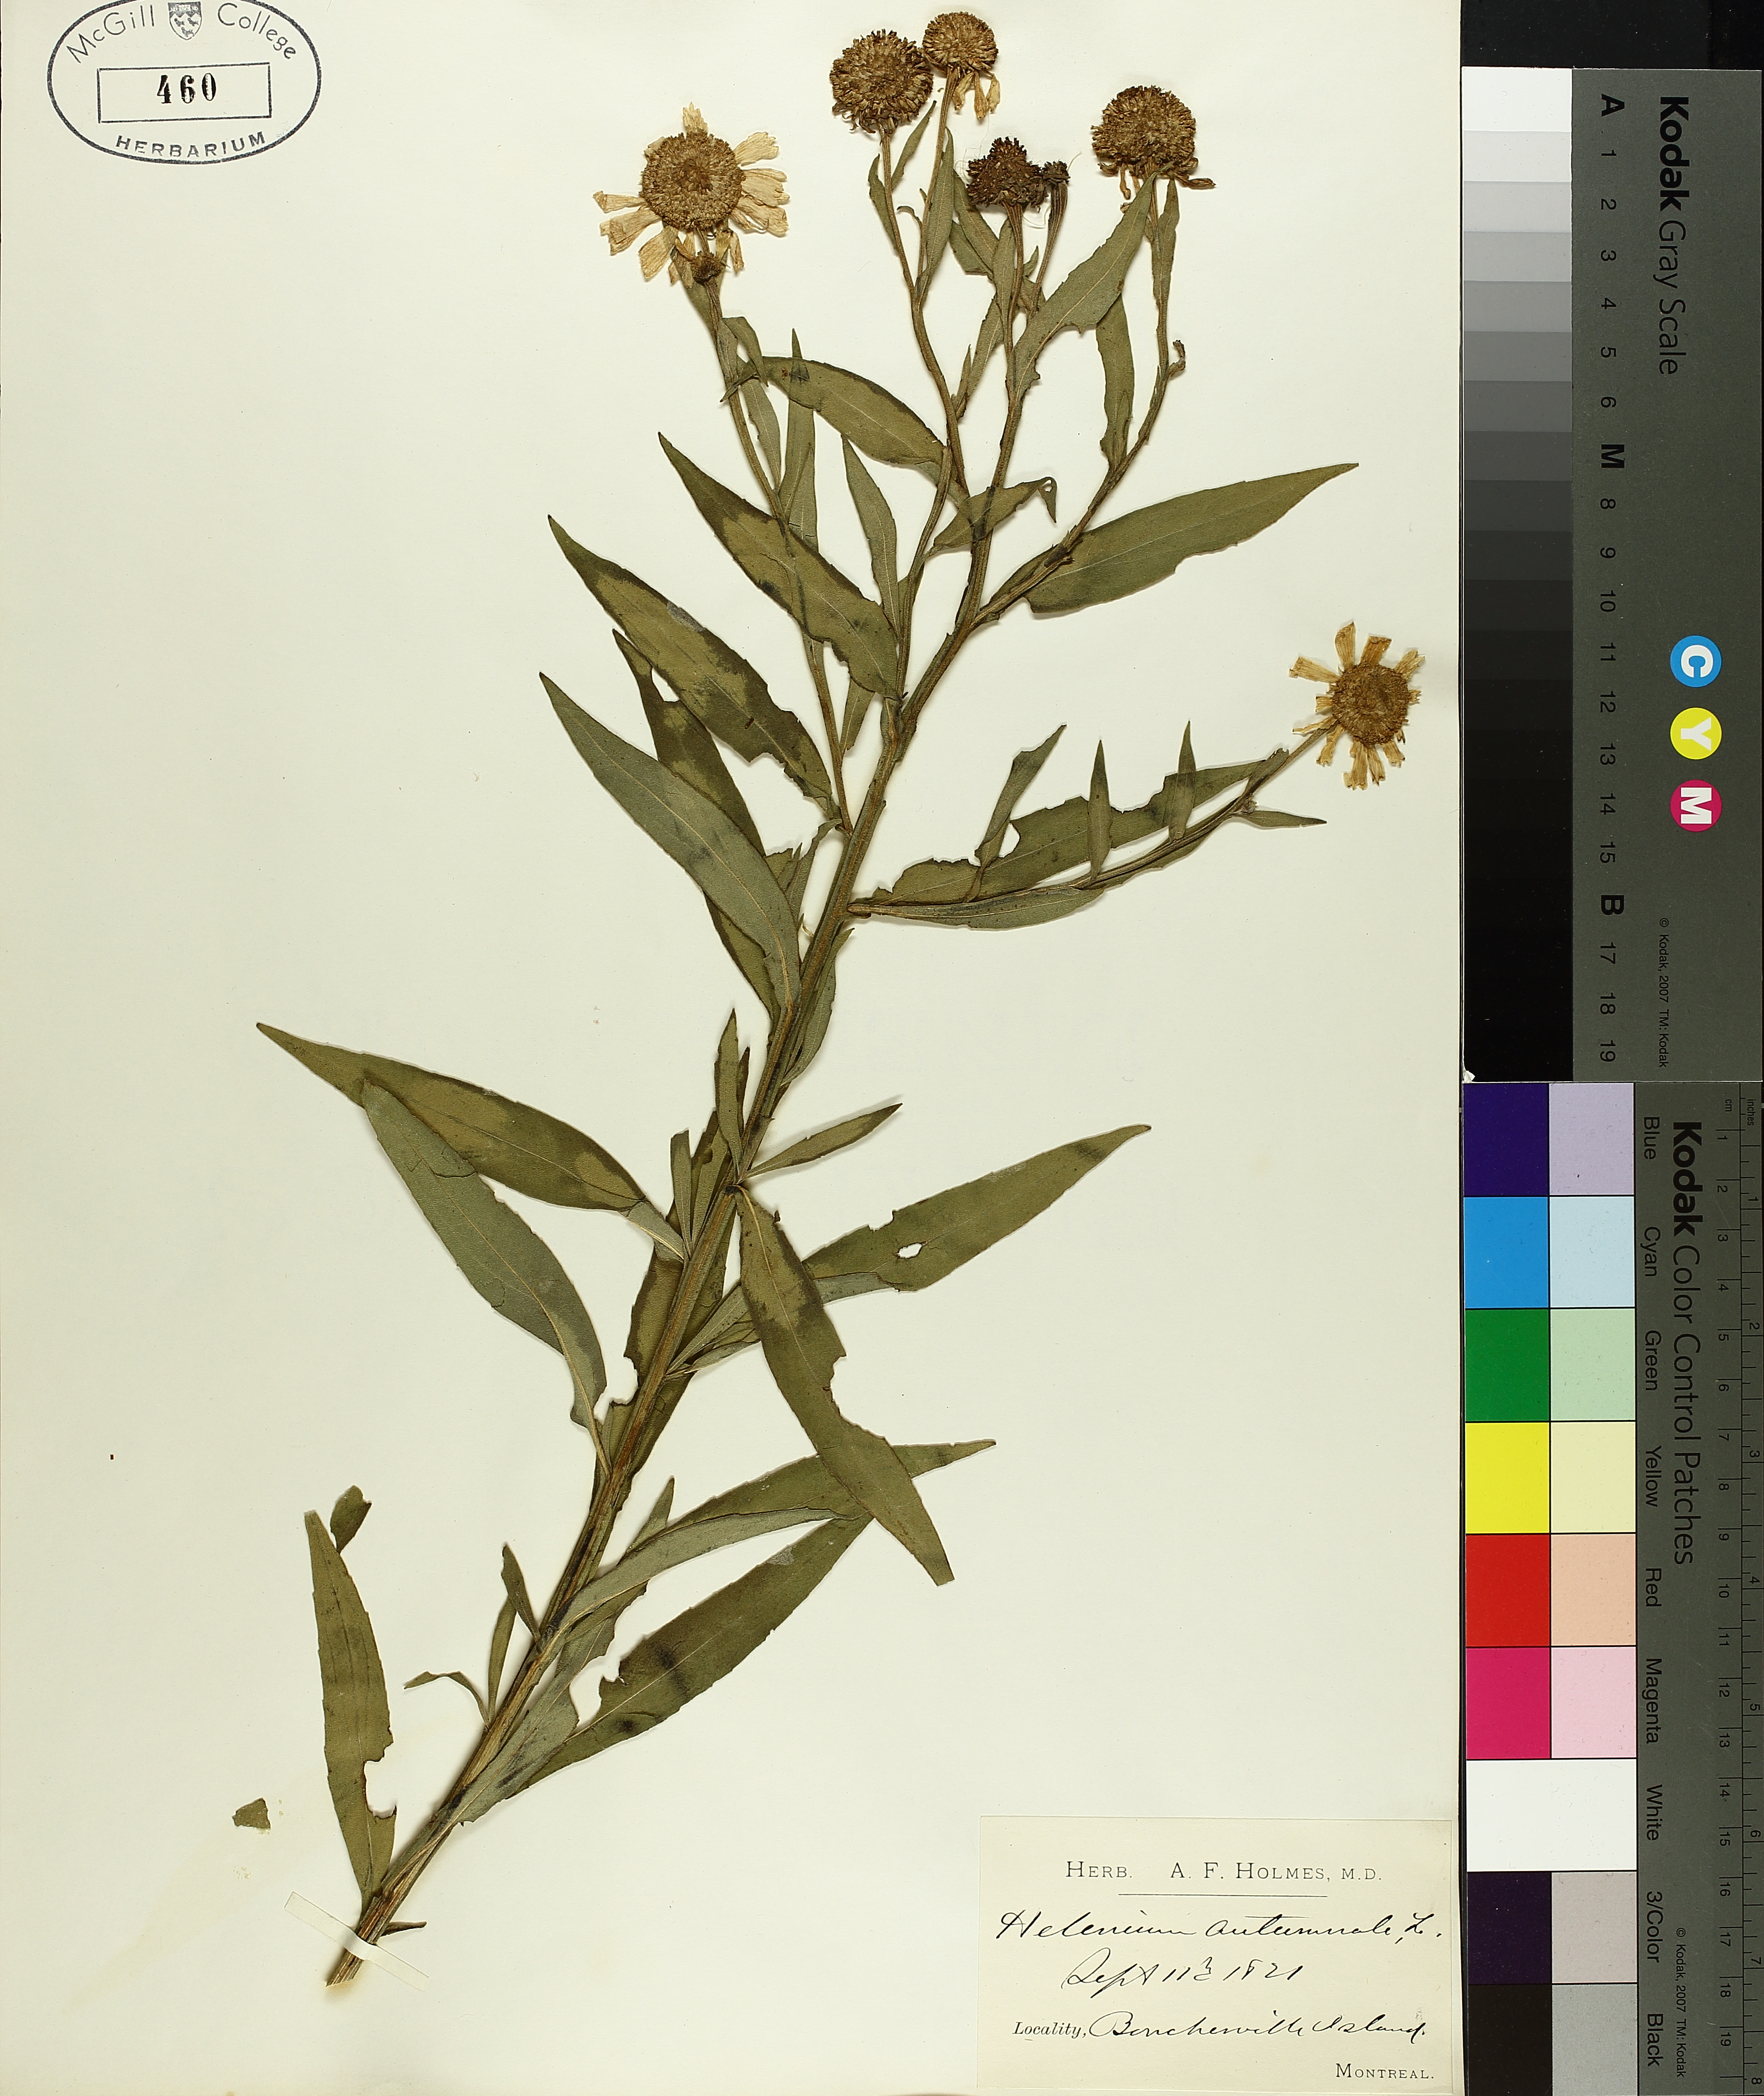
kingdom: Plantae
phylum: Tracheophyta
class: Magnoliopsida
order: Asterales
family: Asteraceae
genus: Helenium
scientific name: Helenium autumnale
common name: Sneezeweed
